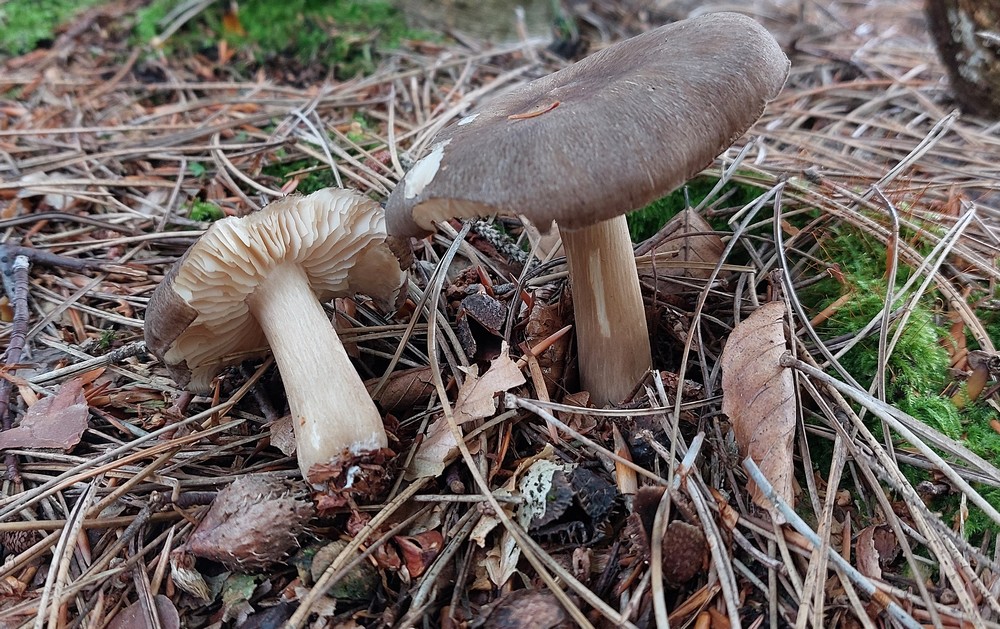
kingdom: Fungi
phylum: Basidiomycota
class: Agaricomycetes
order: Agaricales
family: Tricholomataceae
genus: Megacollybia
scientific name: Megacollybia platyphylla
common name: bredbladet væbnerhat
